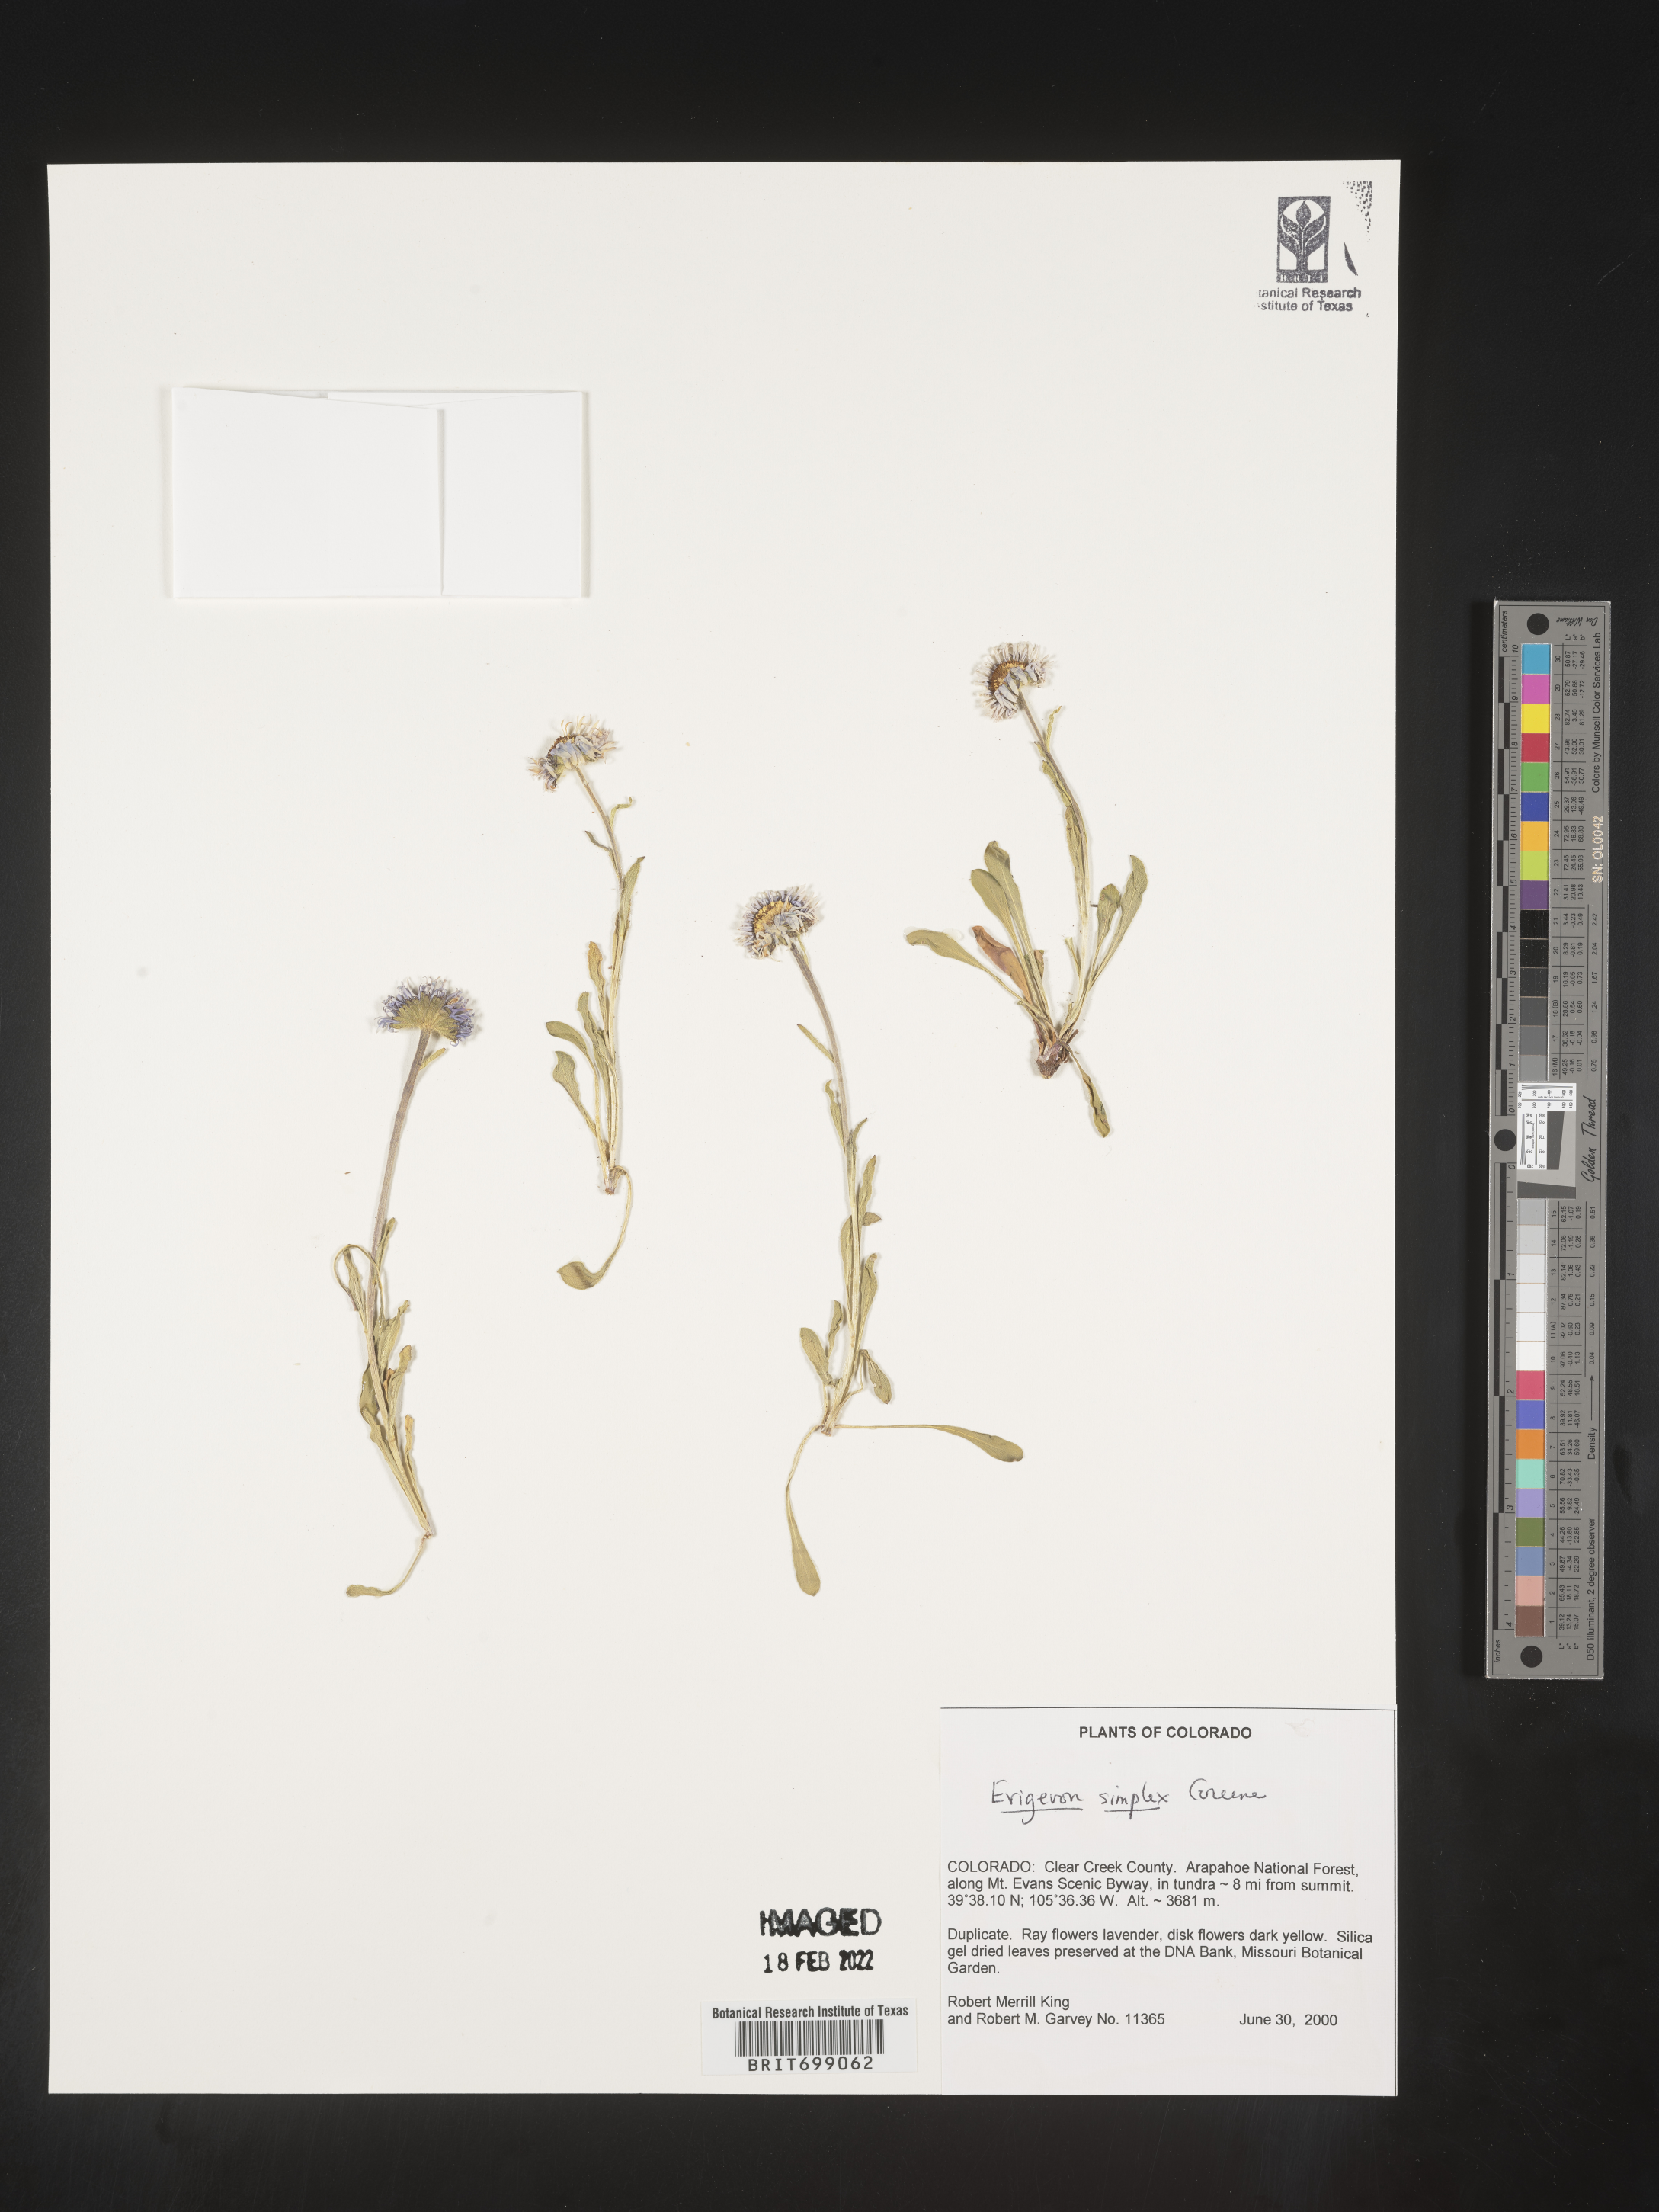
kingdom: Plantae
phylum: Tracheophyta
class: Magnoliopsida
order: Asterales
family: Asteraceae
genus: Erigeron
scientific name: Erigeron caucasicus
